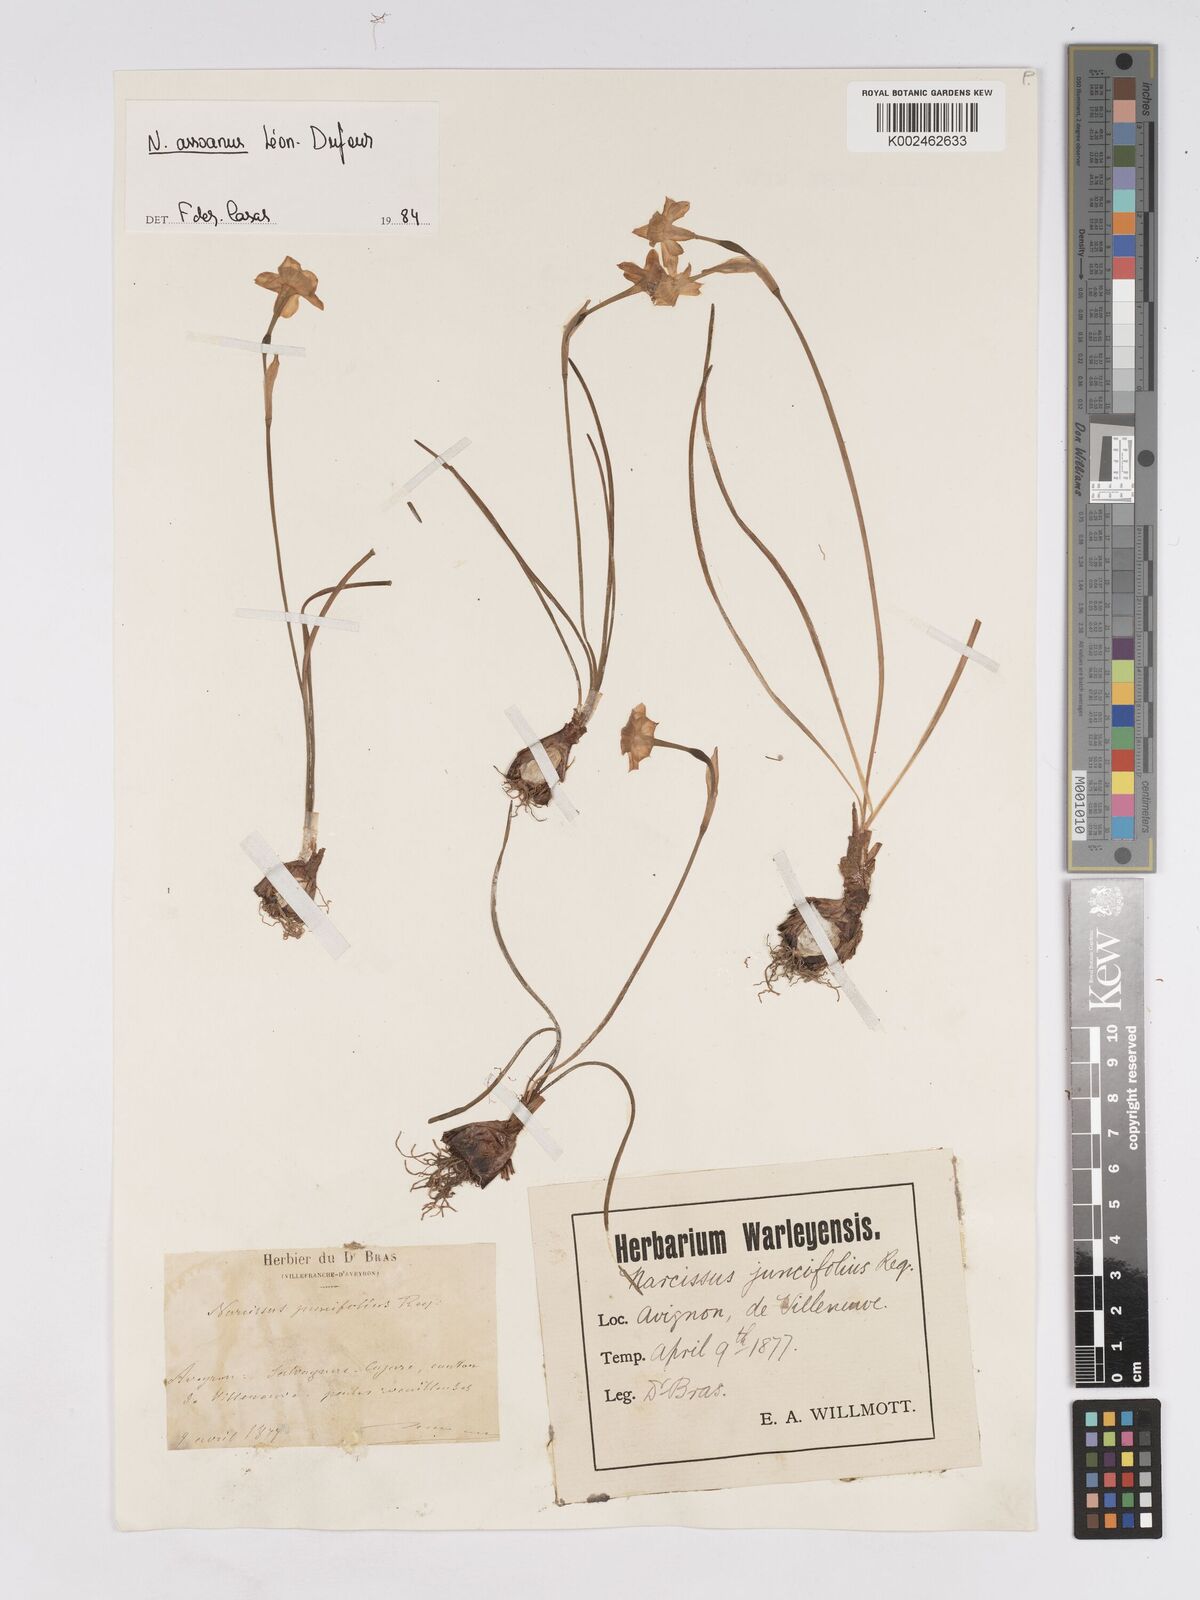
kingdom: Plantae
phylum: Tracheophyta
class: Liliopsida
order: Asparagales
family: Amaryllidaceae
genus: Narcissus
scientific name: Narcissus assoanus
